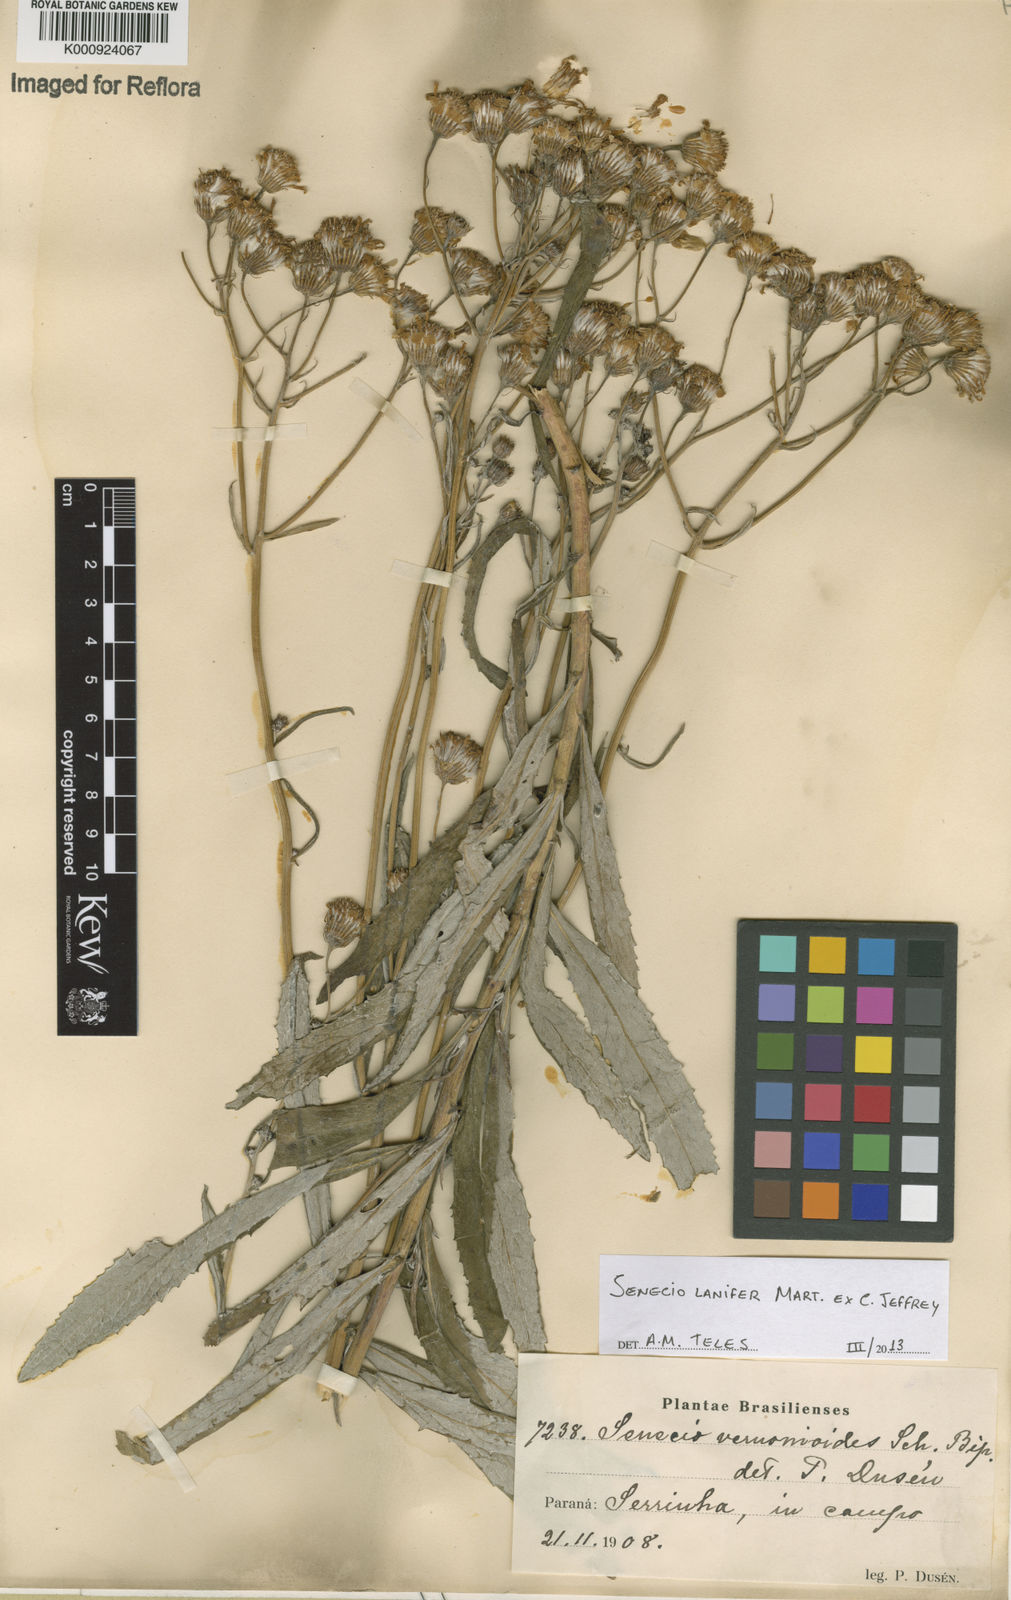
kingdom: Plantae
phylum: Tracheophyta
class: Magnoliopsida
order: Asterales
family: Asteraceae
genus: Senecio
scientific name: Senecio lanifer
